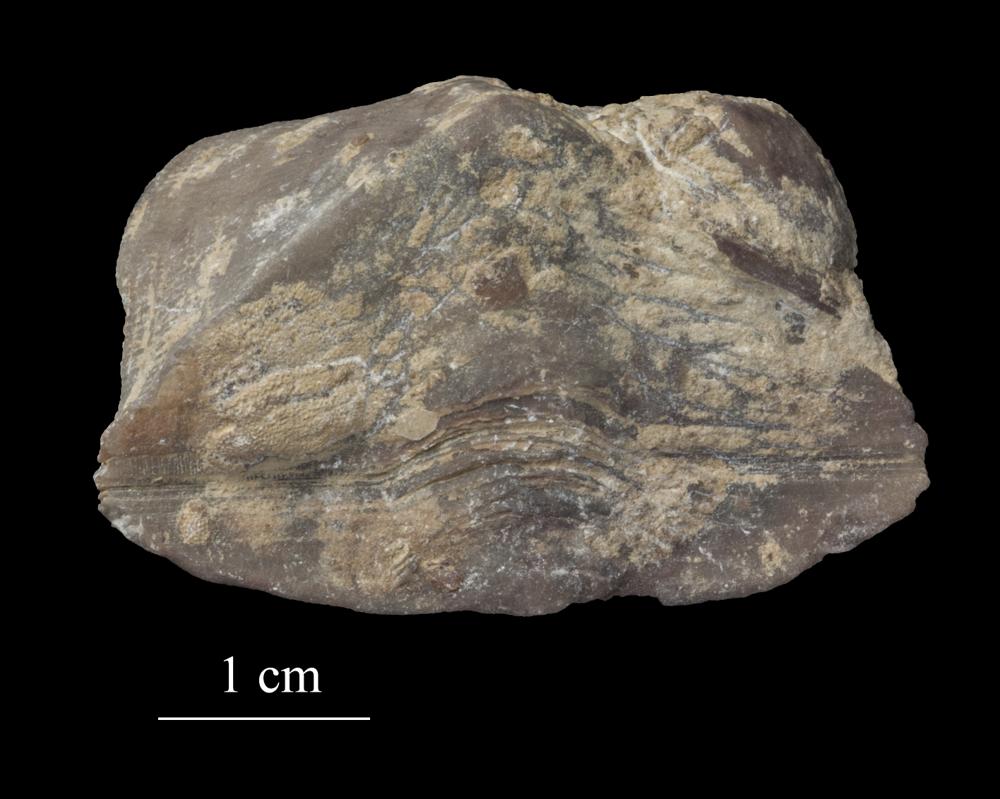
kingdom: Animalia
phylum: Brachiopoda
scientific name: Brachiopoda
